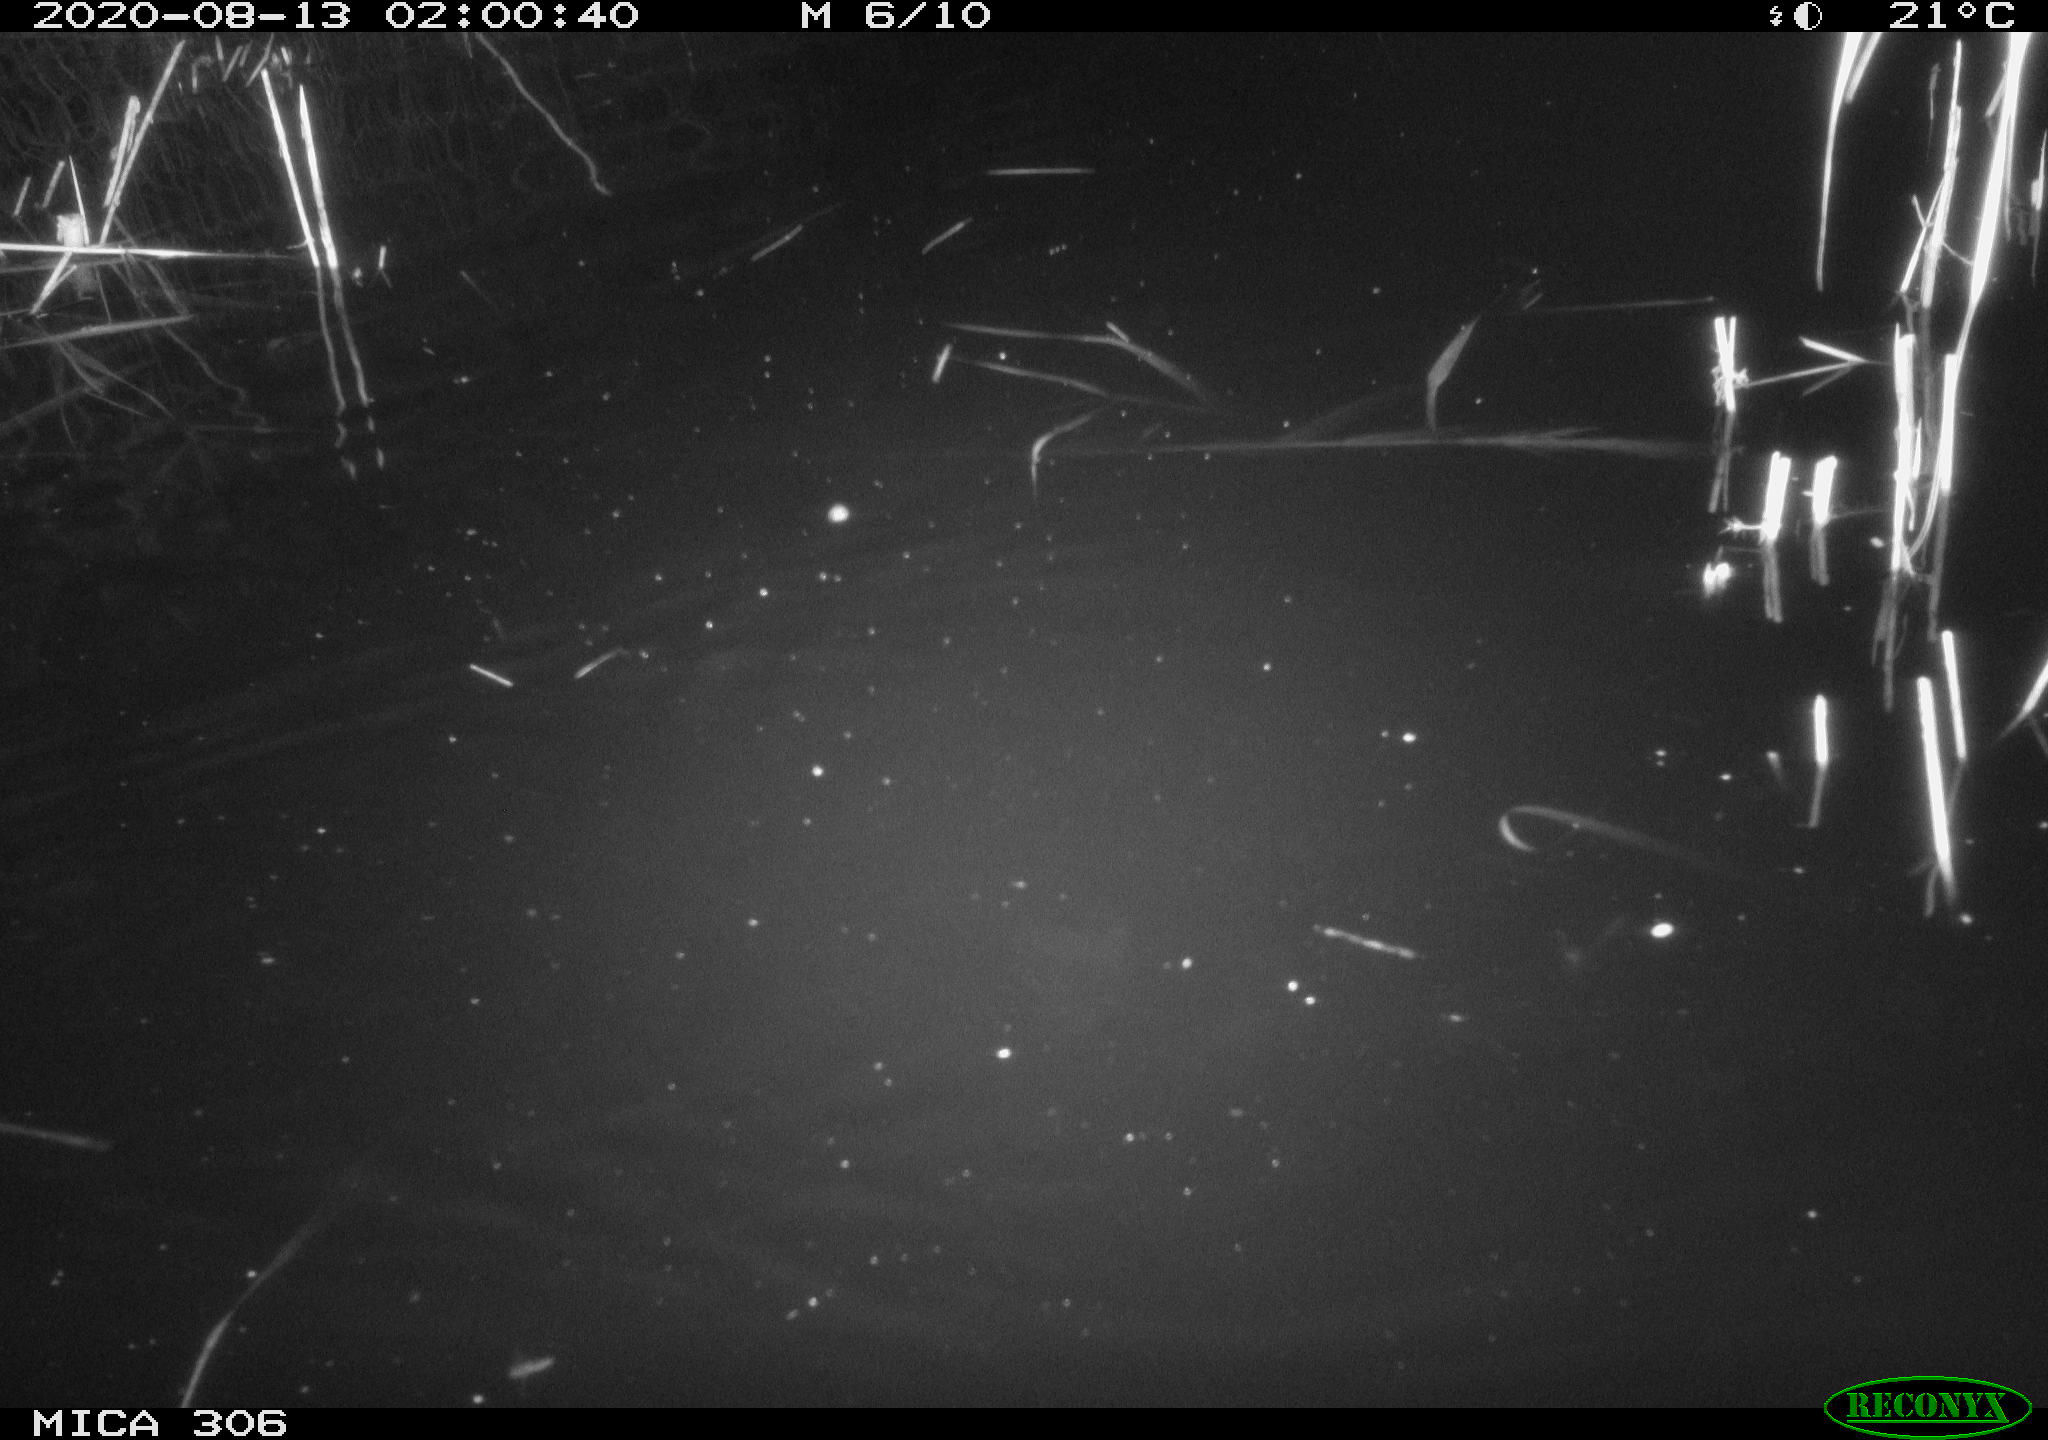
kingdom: Animalia
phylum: Chordata
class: Mammalia
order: Rodentia
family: Muridae
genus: Rattus
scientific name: Rattus norvegicus
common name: Brown rat
